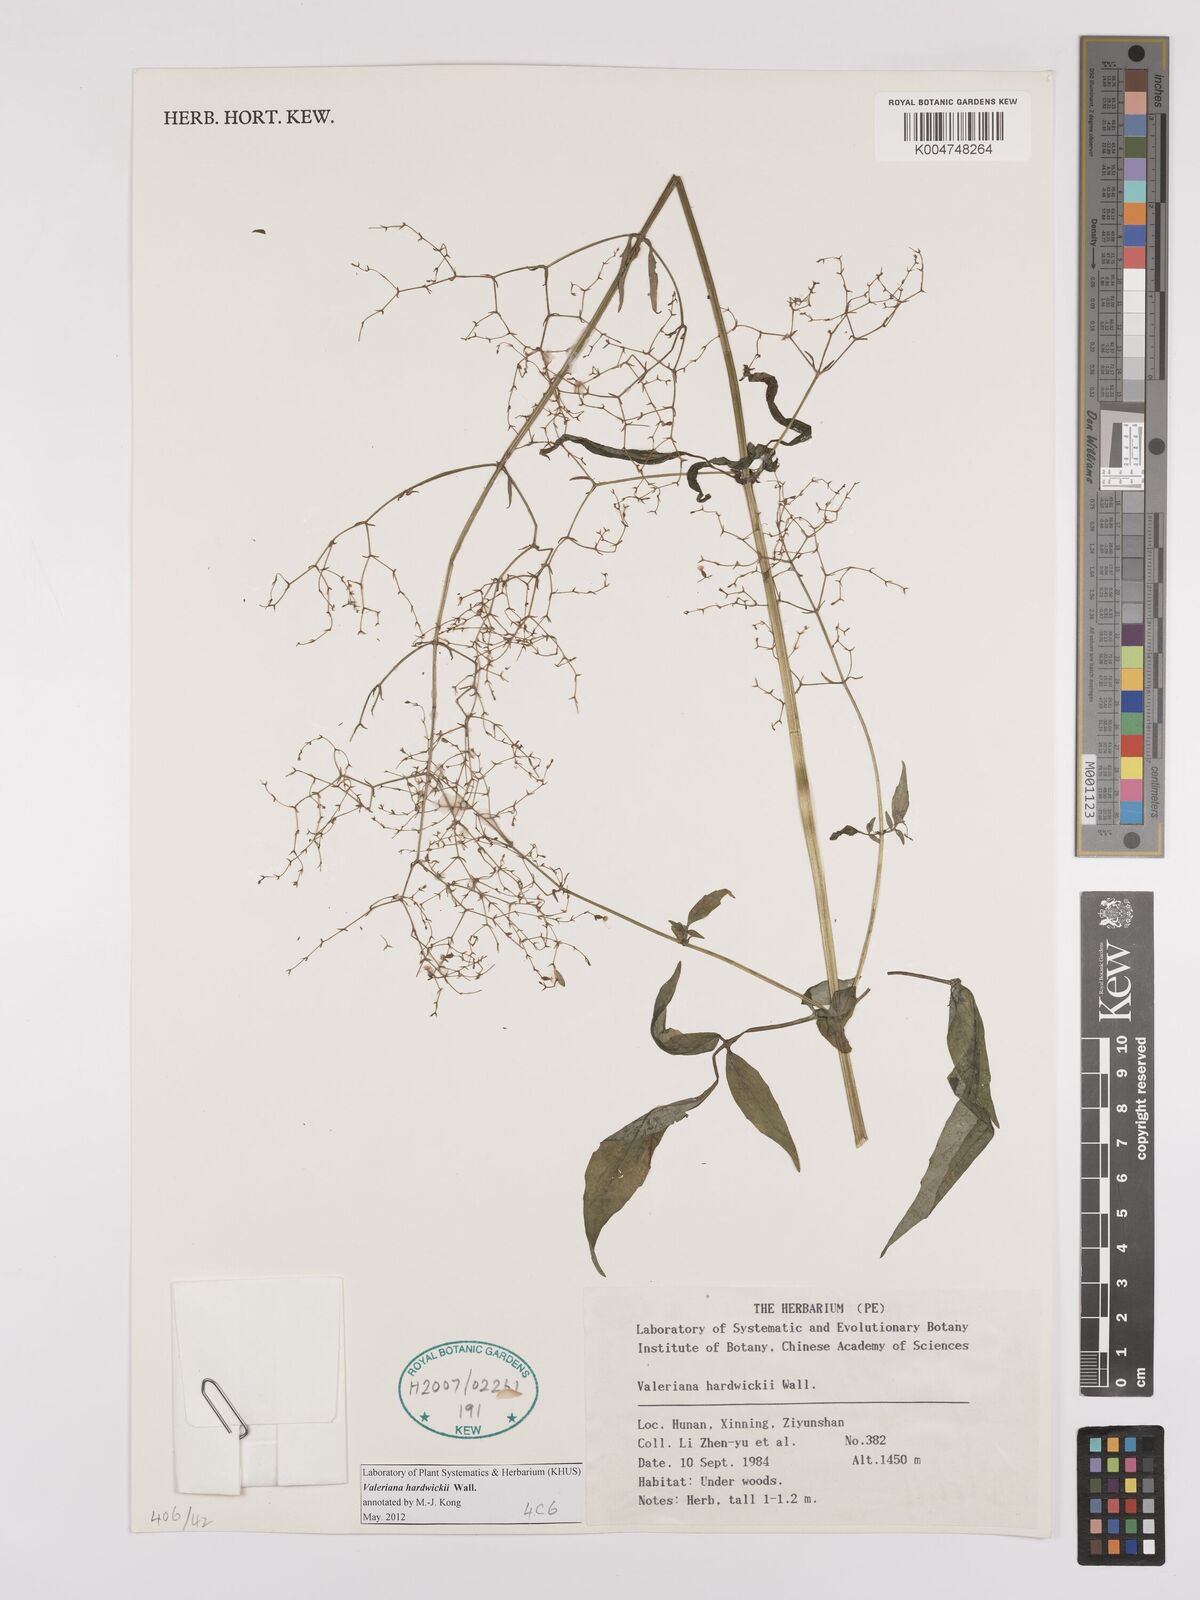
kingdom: Plantae
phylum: Tracheophyta
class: Magnoliopsida
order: Dipsacales
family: Caprifoliaceae
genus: Valeriana
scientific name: Valeriana hardwickei
